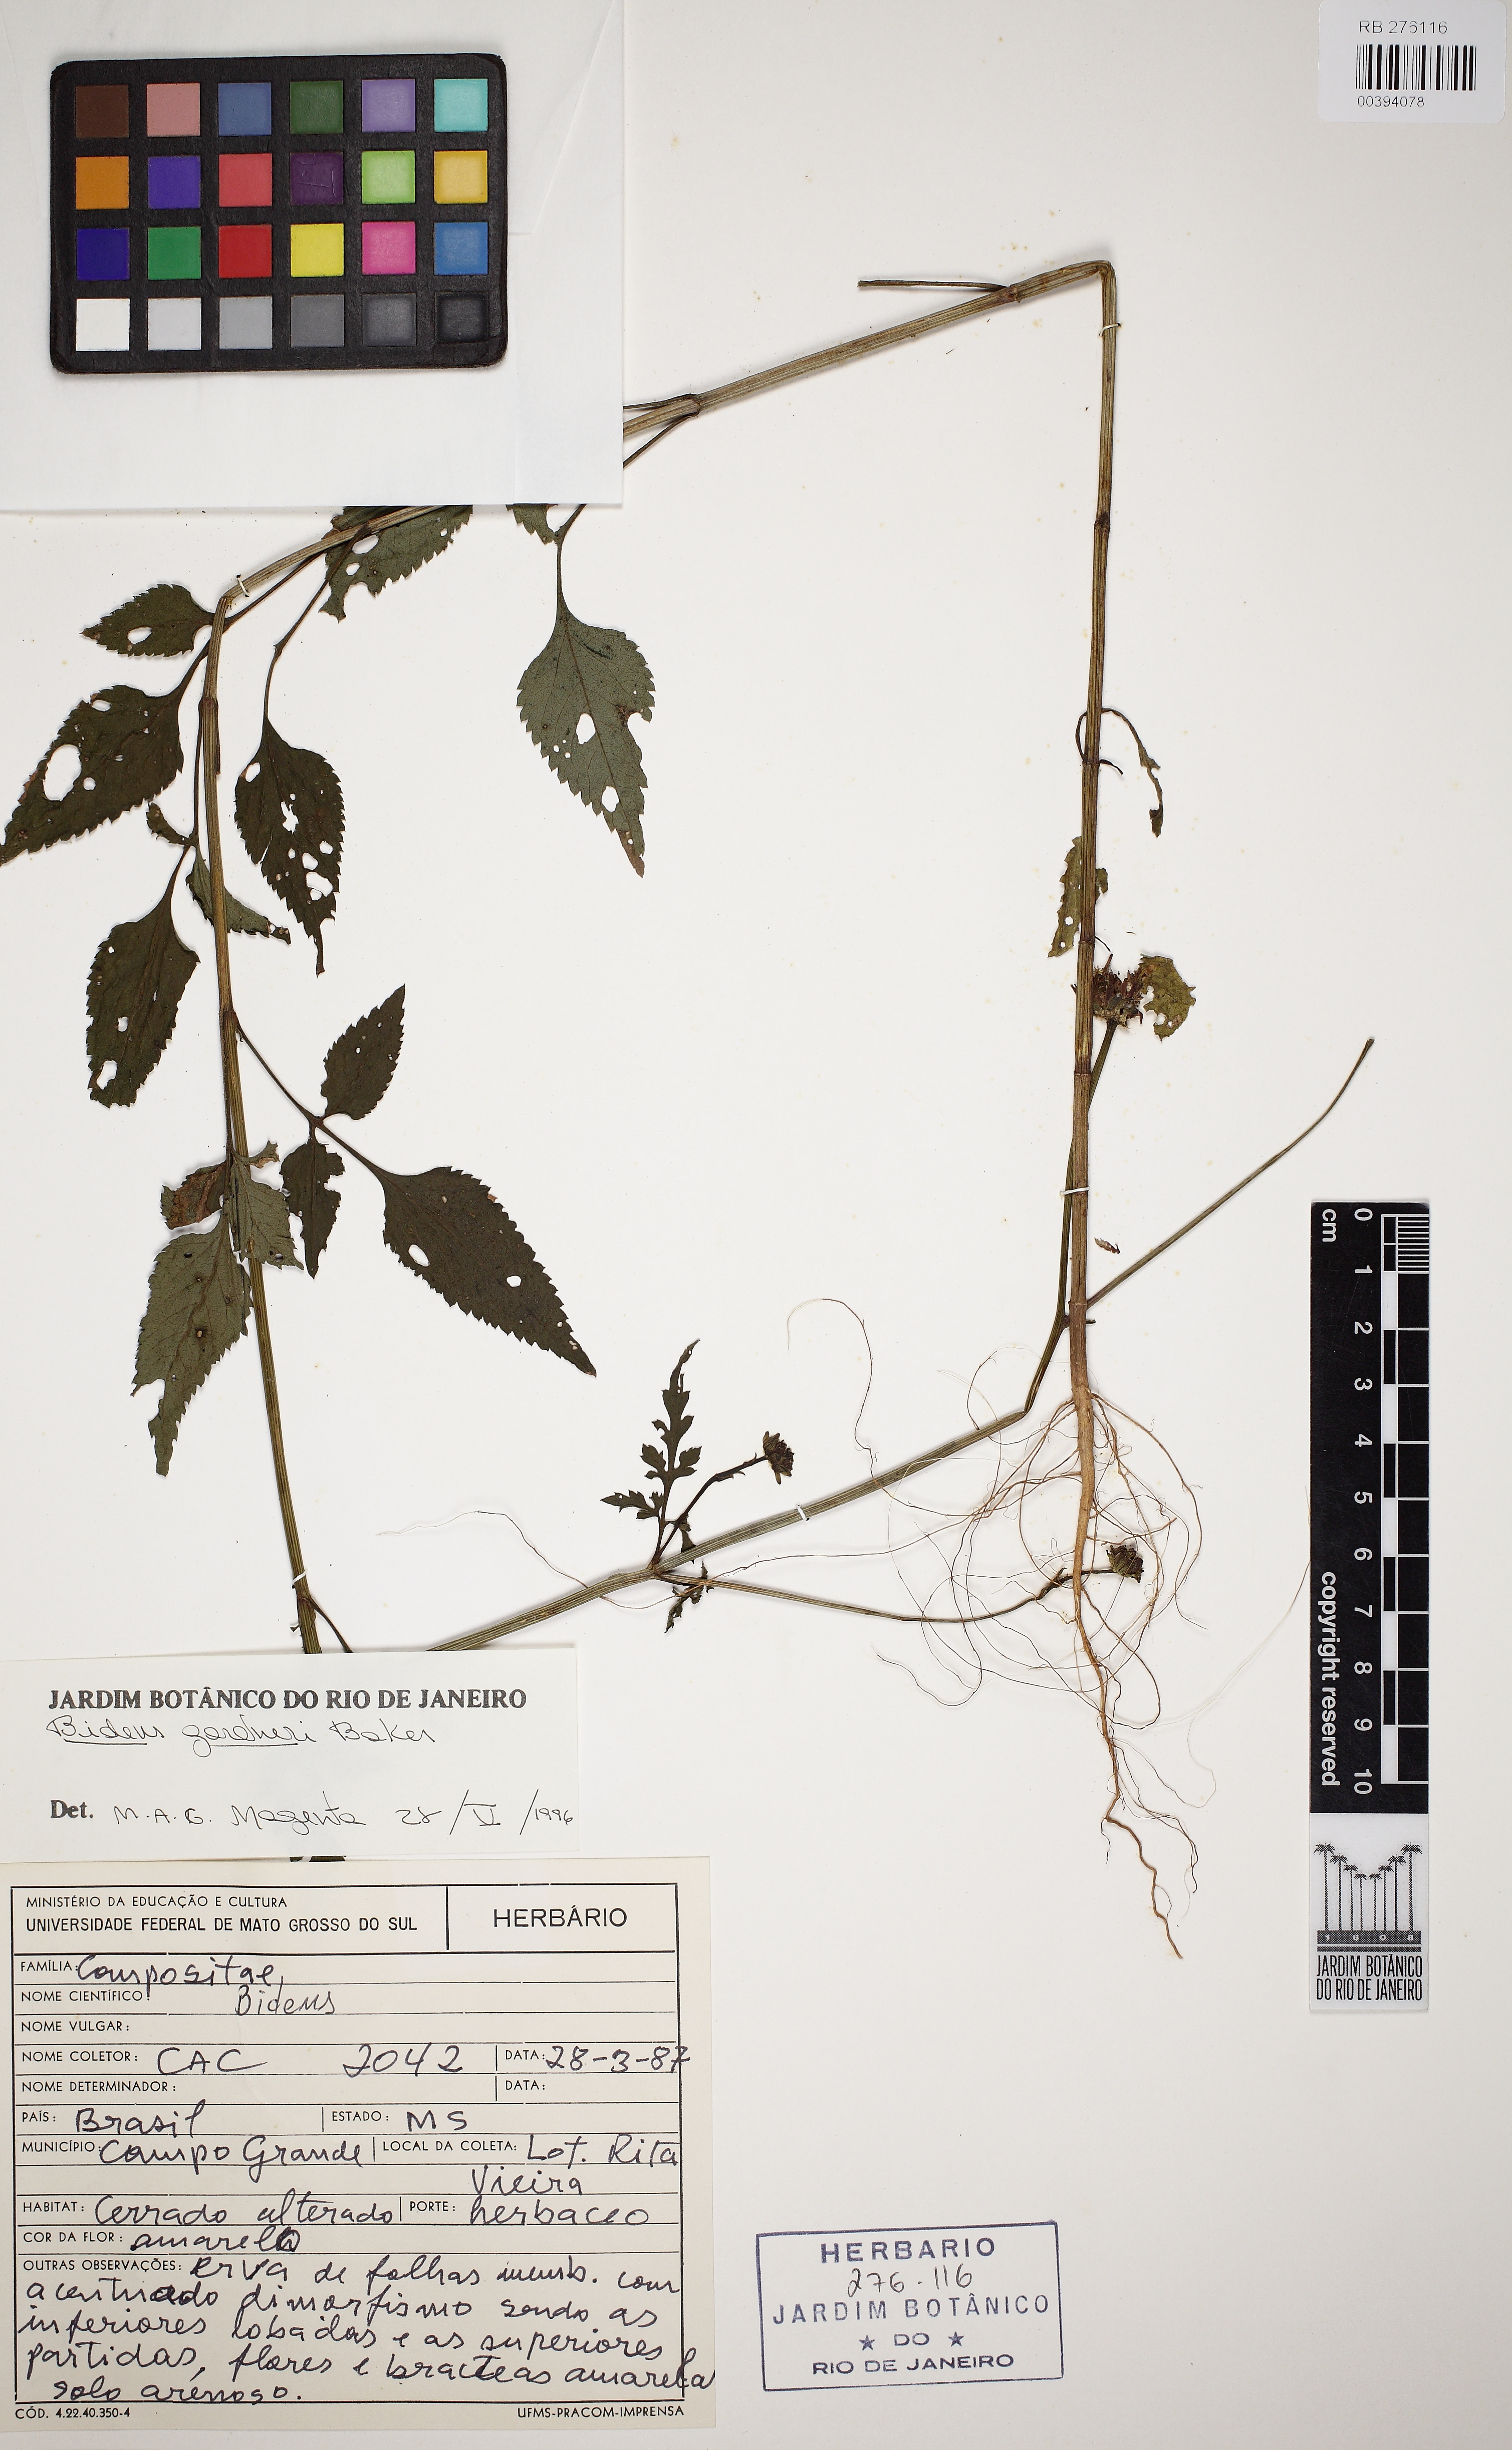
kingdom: Plantae
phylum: Tracheophyta
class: Magnoliopsida
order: Asterales
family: Asteraceae
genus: Bidens
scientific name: Bidens gardneri
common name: Ridge beggartick
